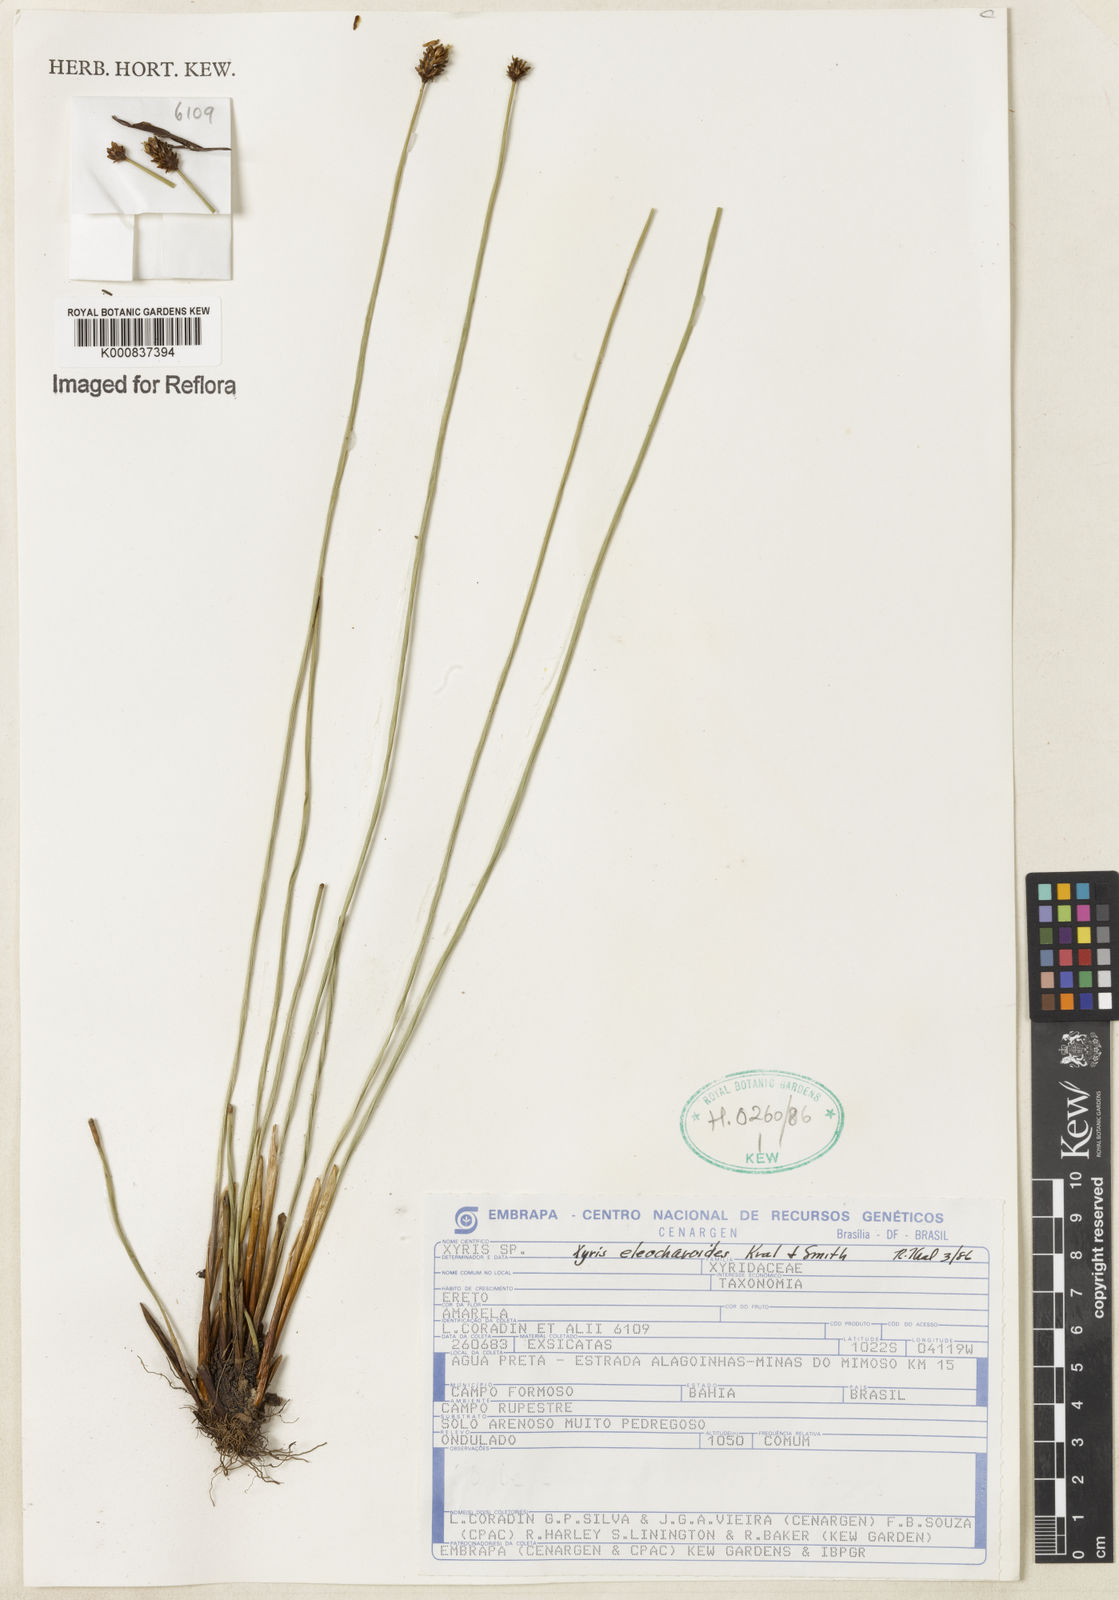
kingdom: Plantae
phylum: Tracheophyta
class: Liliopsida
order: Poales
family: Xyridaceae
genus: Xyris
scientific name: Xyris eleocharoides
